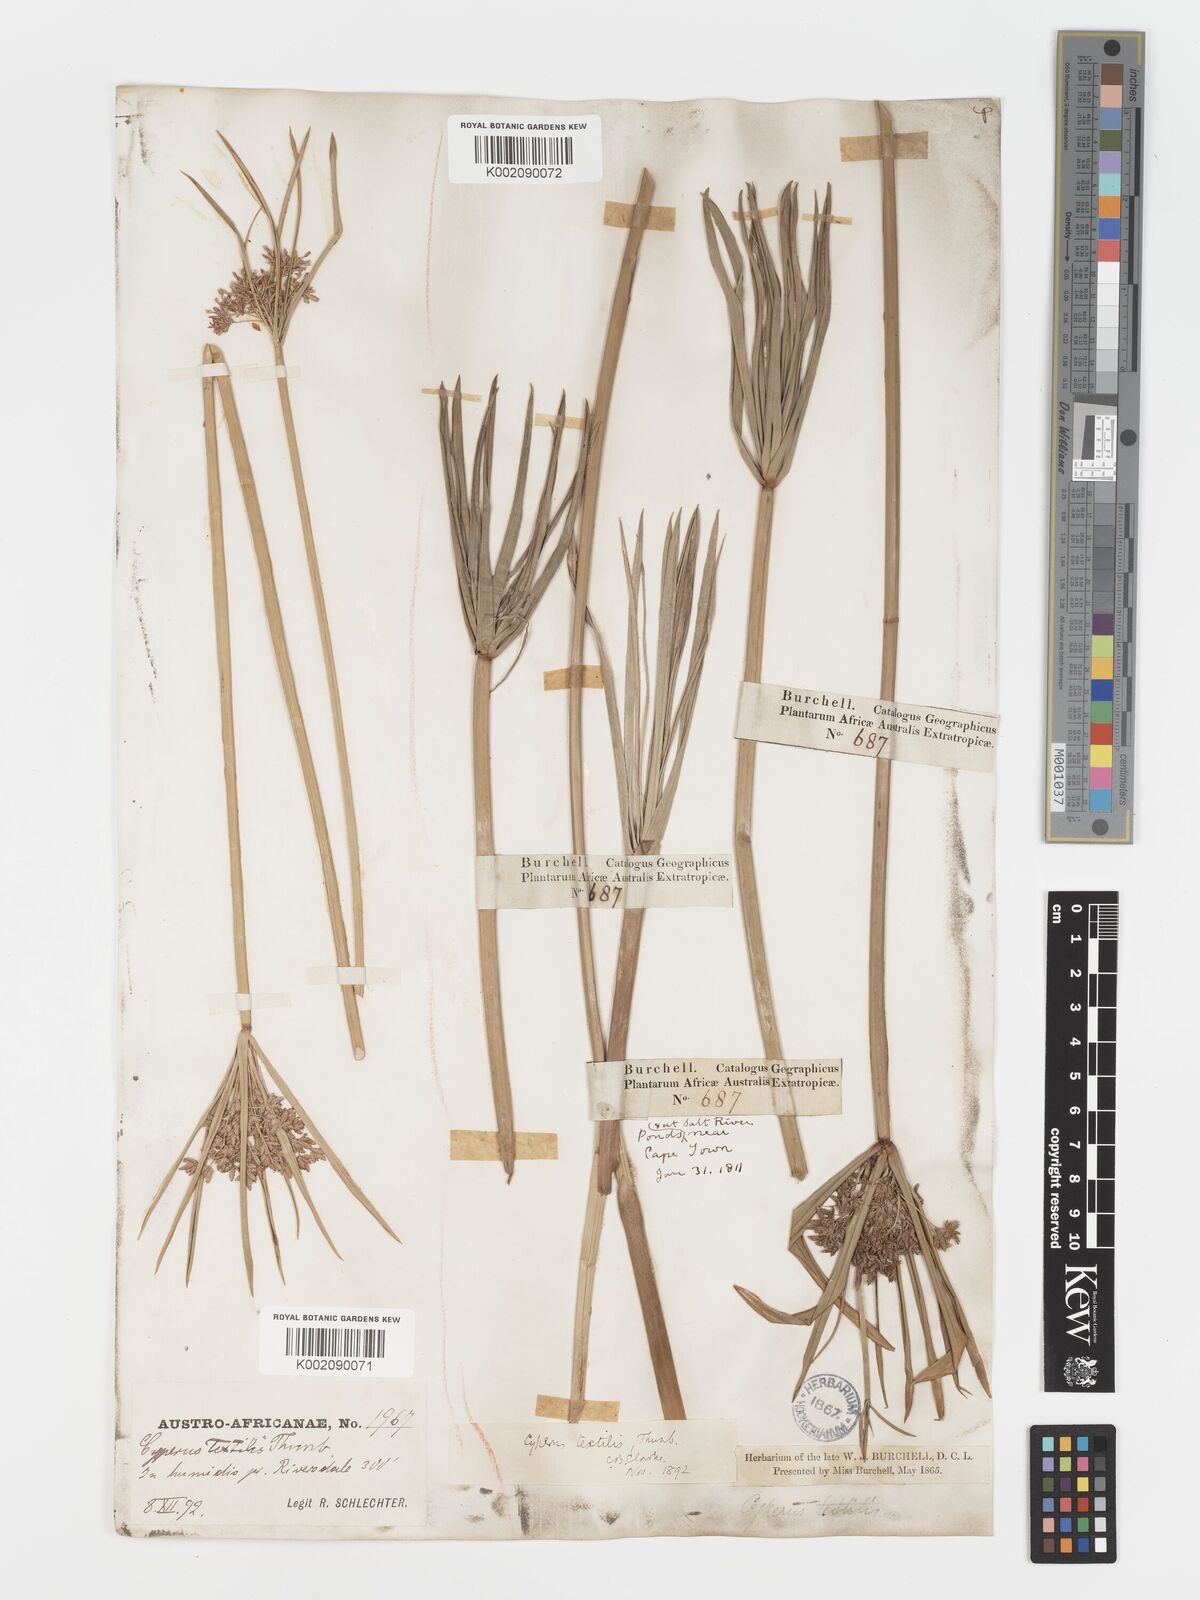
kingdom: Plantae
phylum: Tracheophyta
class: Liliopsida
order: Poales
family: Cyperaceae
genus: Cyperus
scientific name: Cyperus alternifolius
